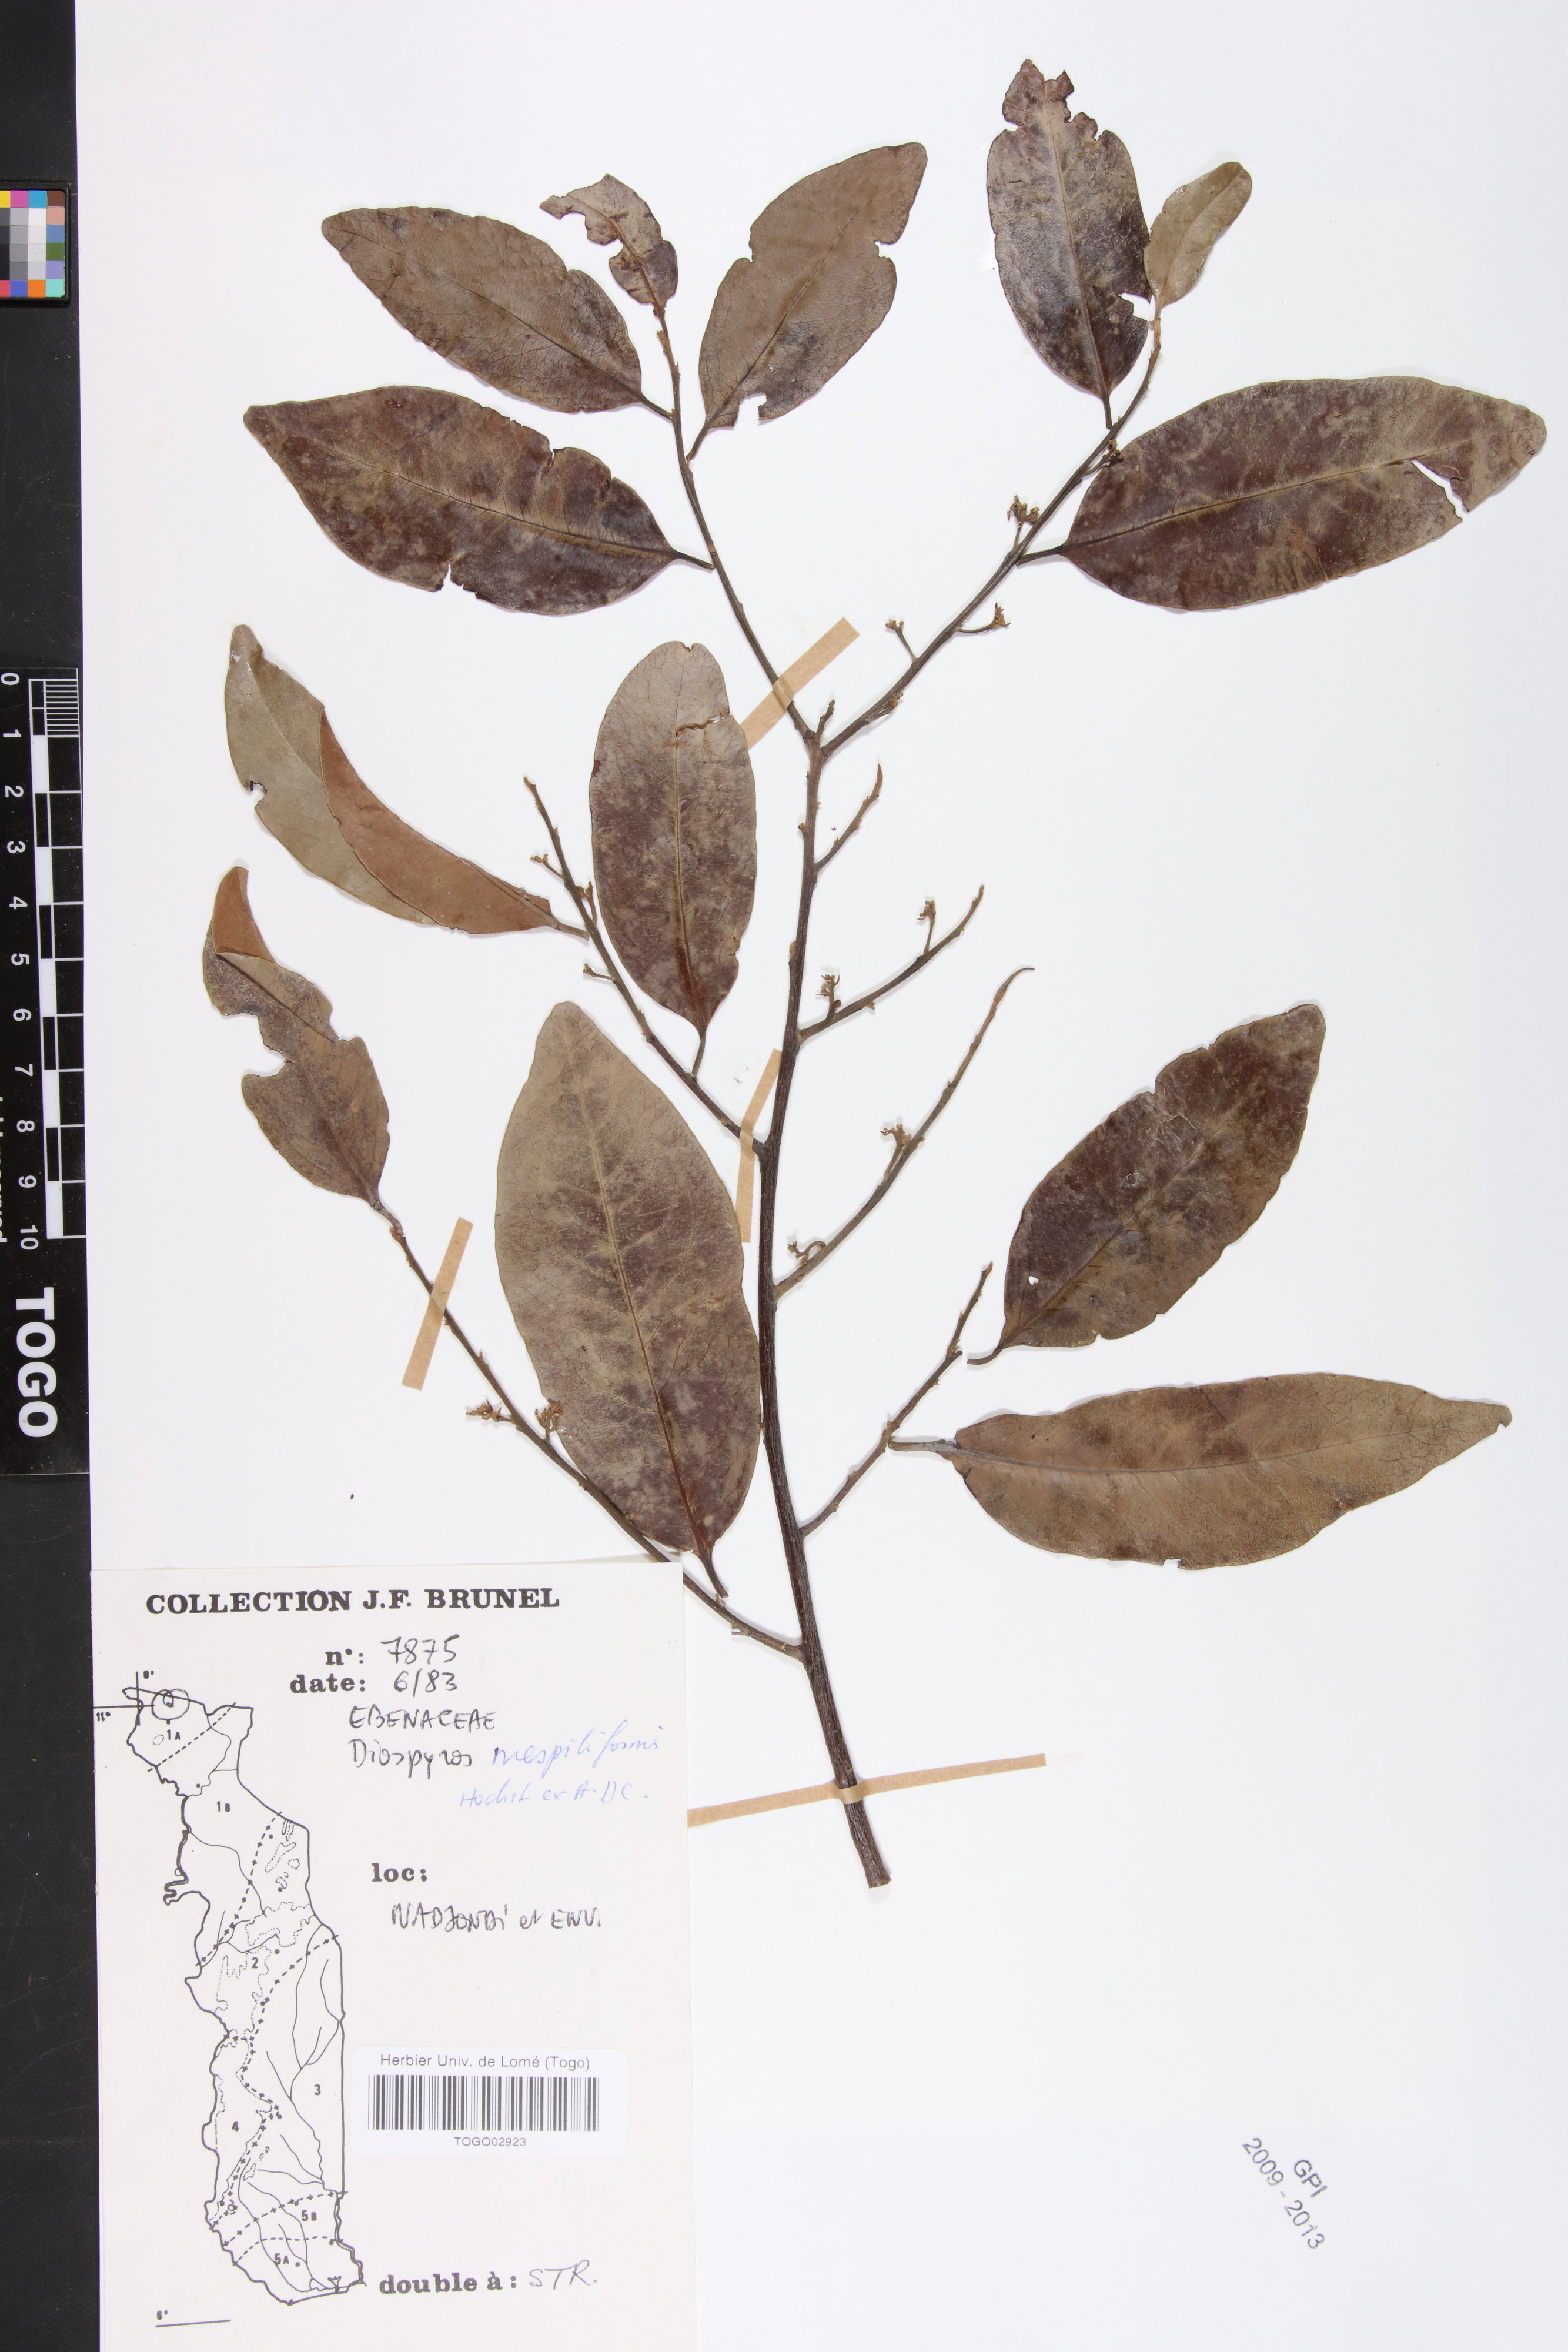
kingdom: Plantae
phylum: Tracheophyta
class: Magnoliopsida
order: Ericales
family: Ebenaceae
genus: Diospyros
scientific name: Diospyros mespiliformis
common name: Ebony diospyros
